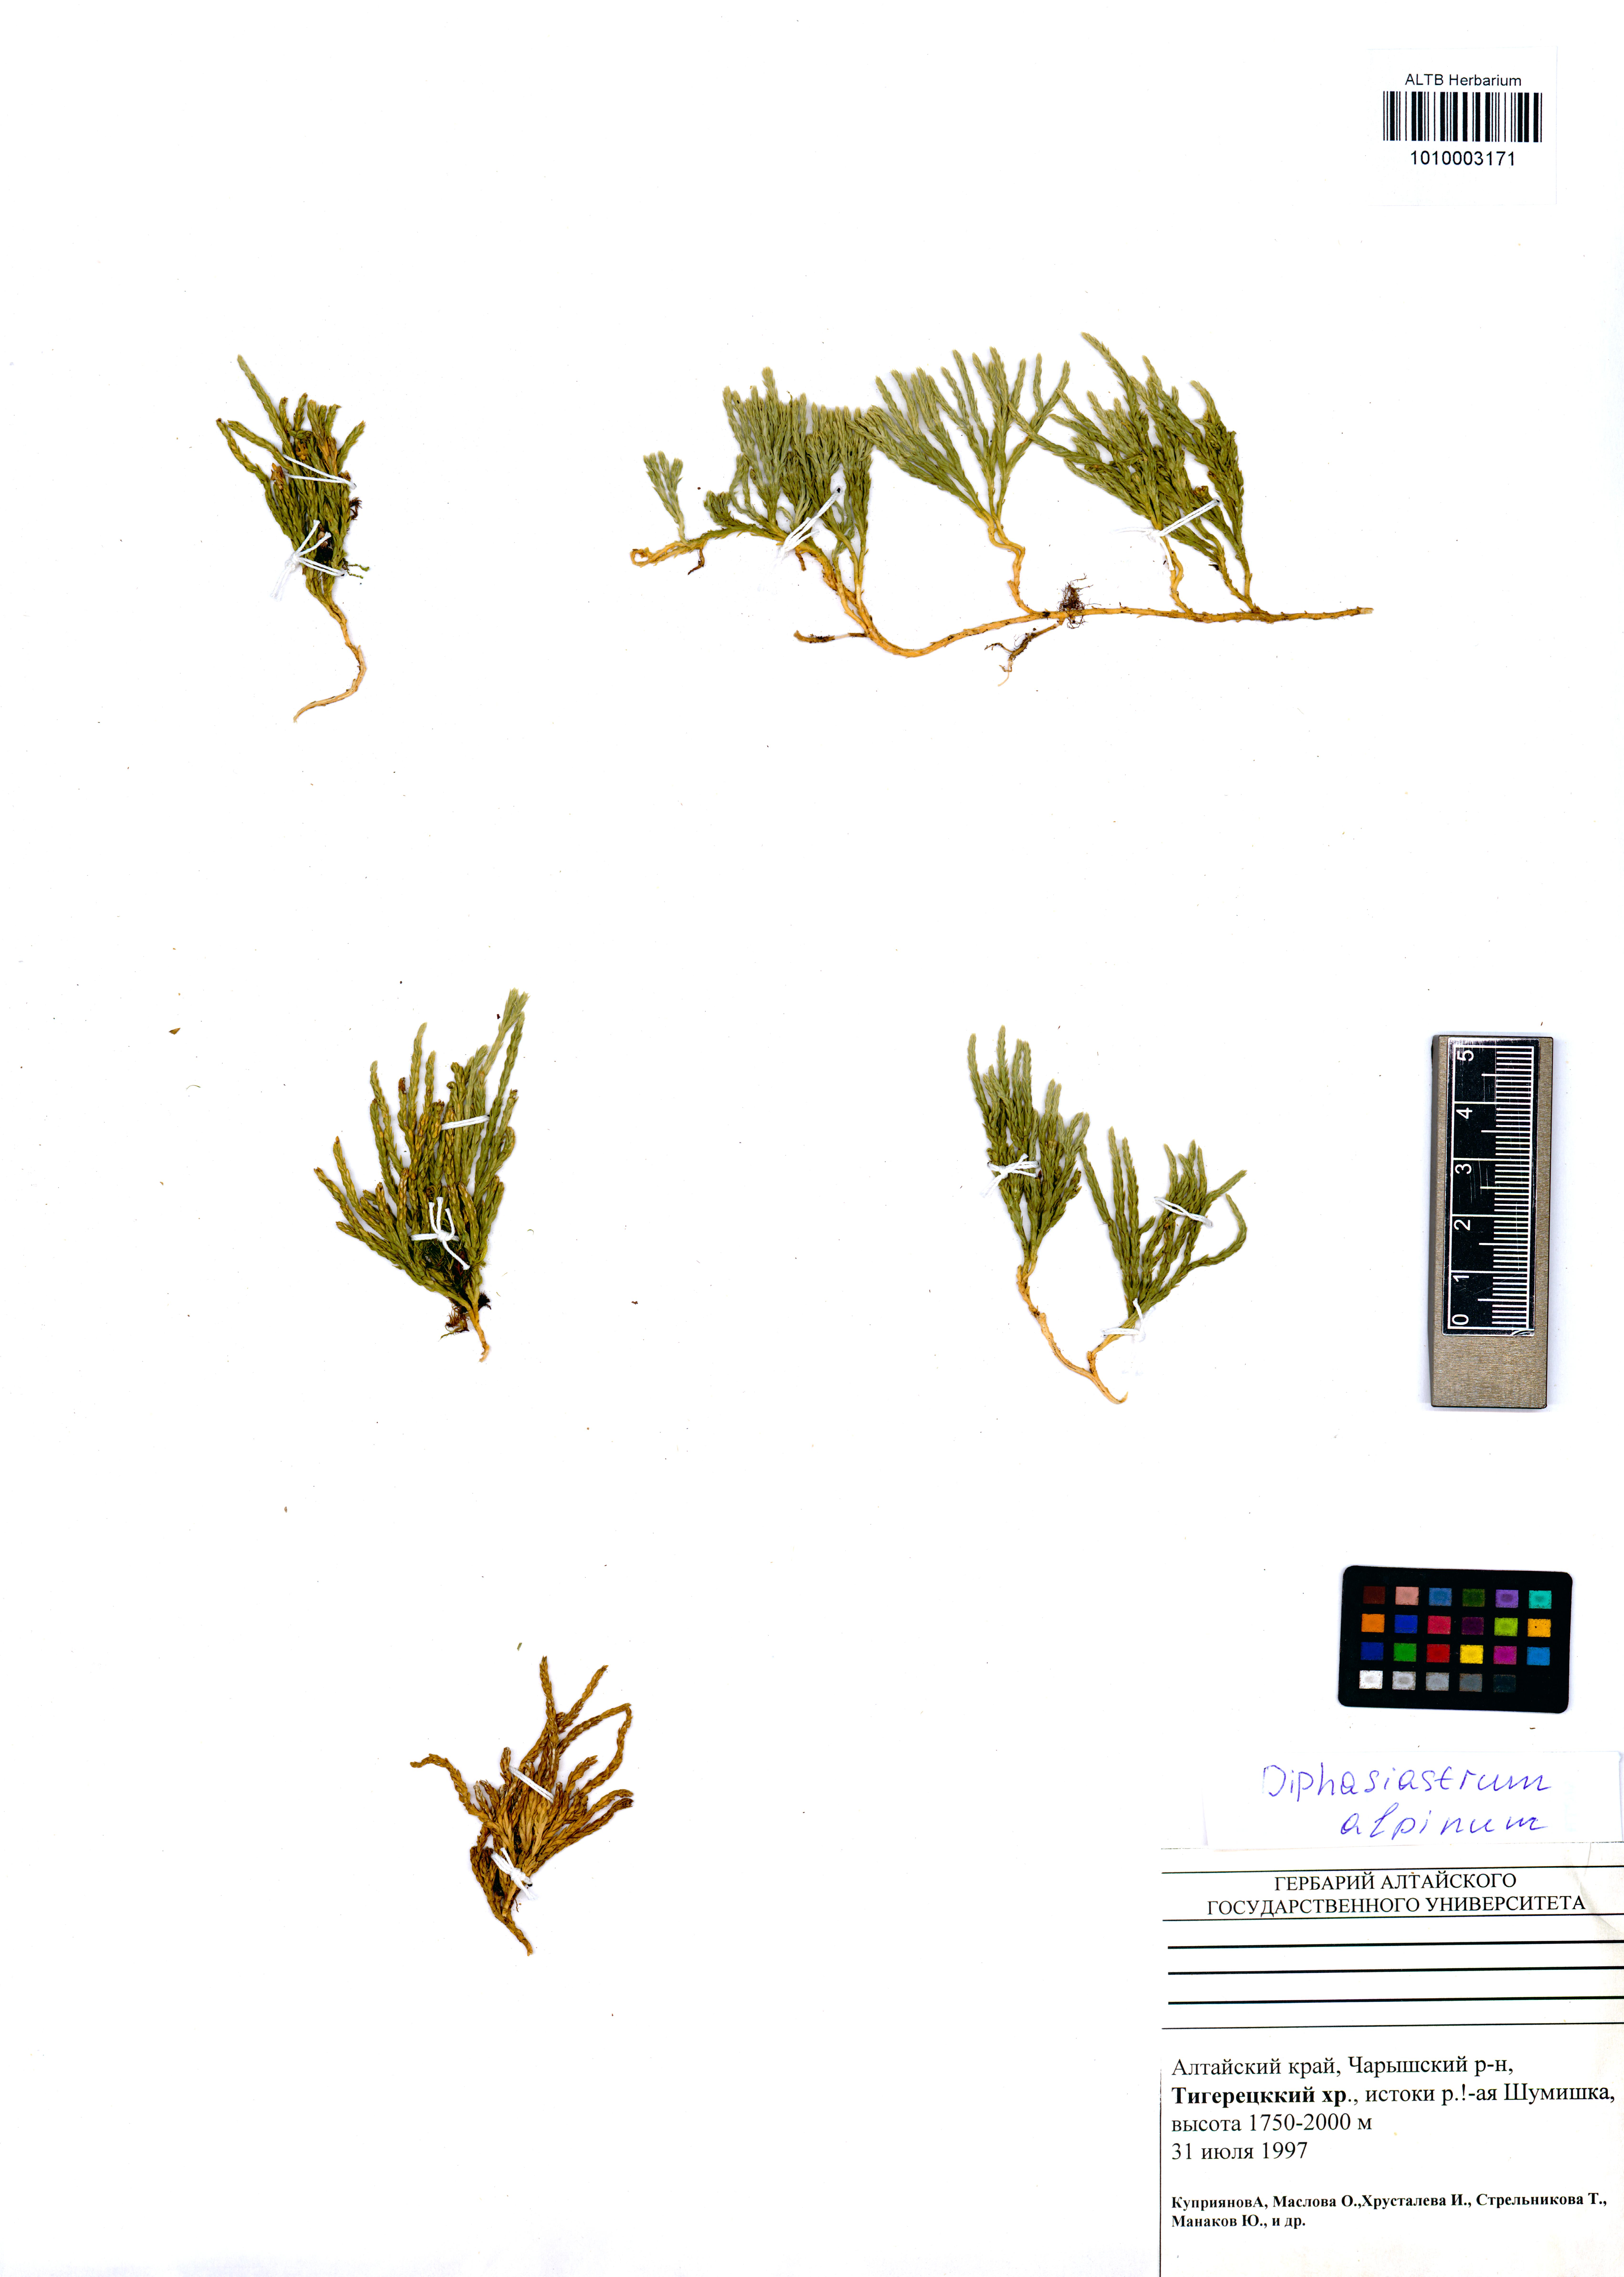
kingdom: Plantae
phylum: Tracheophyta
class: Lycopodiopsida
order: Lycopodiales
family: Lycopodiaceae
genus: Diphasiastrum
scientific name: Diphasiastrum alpinum
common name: Alpine clubmoss
